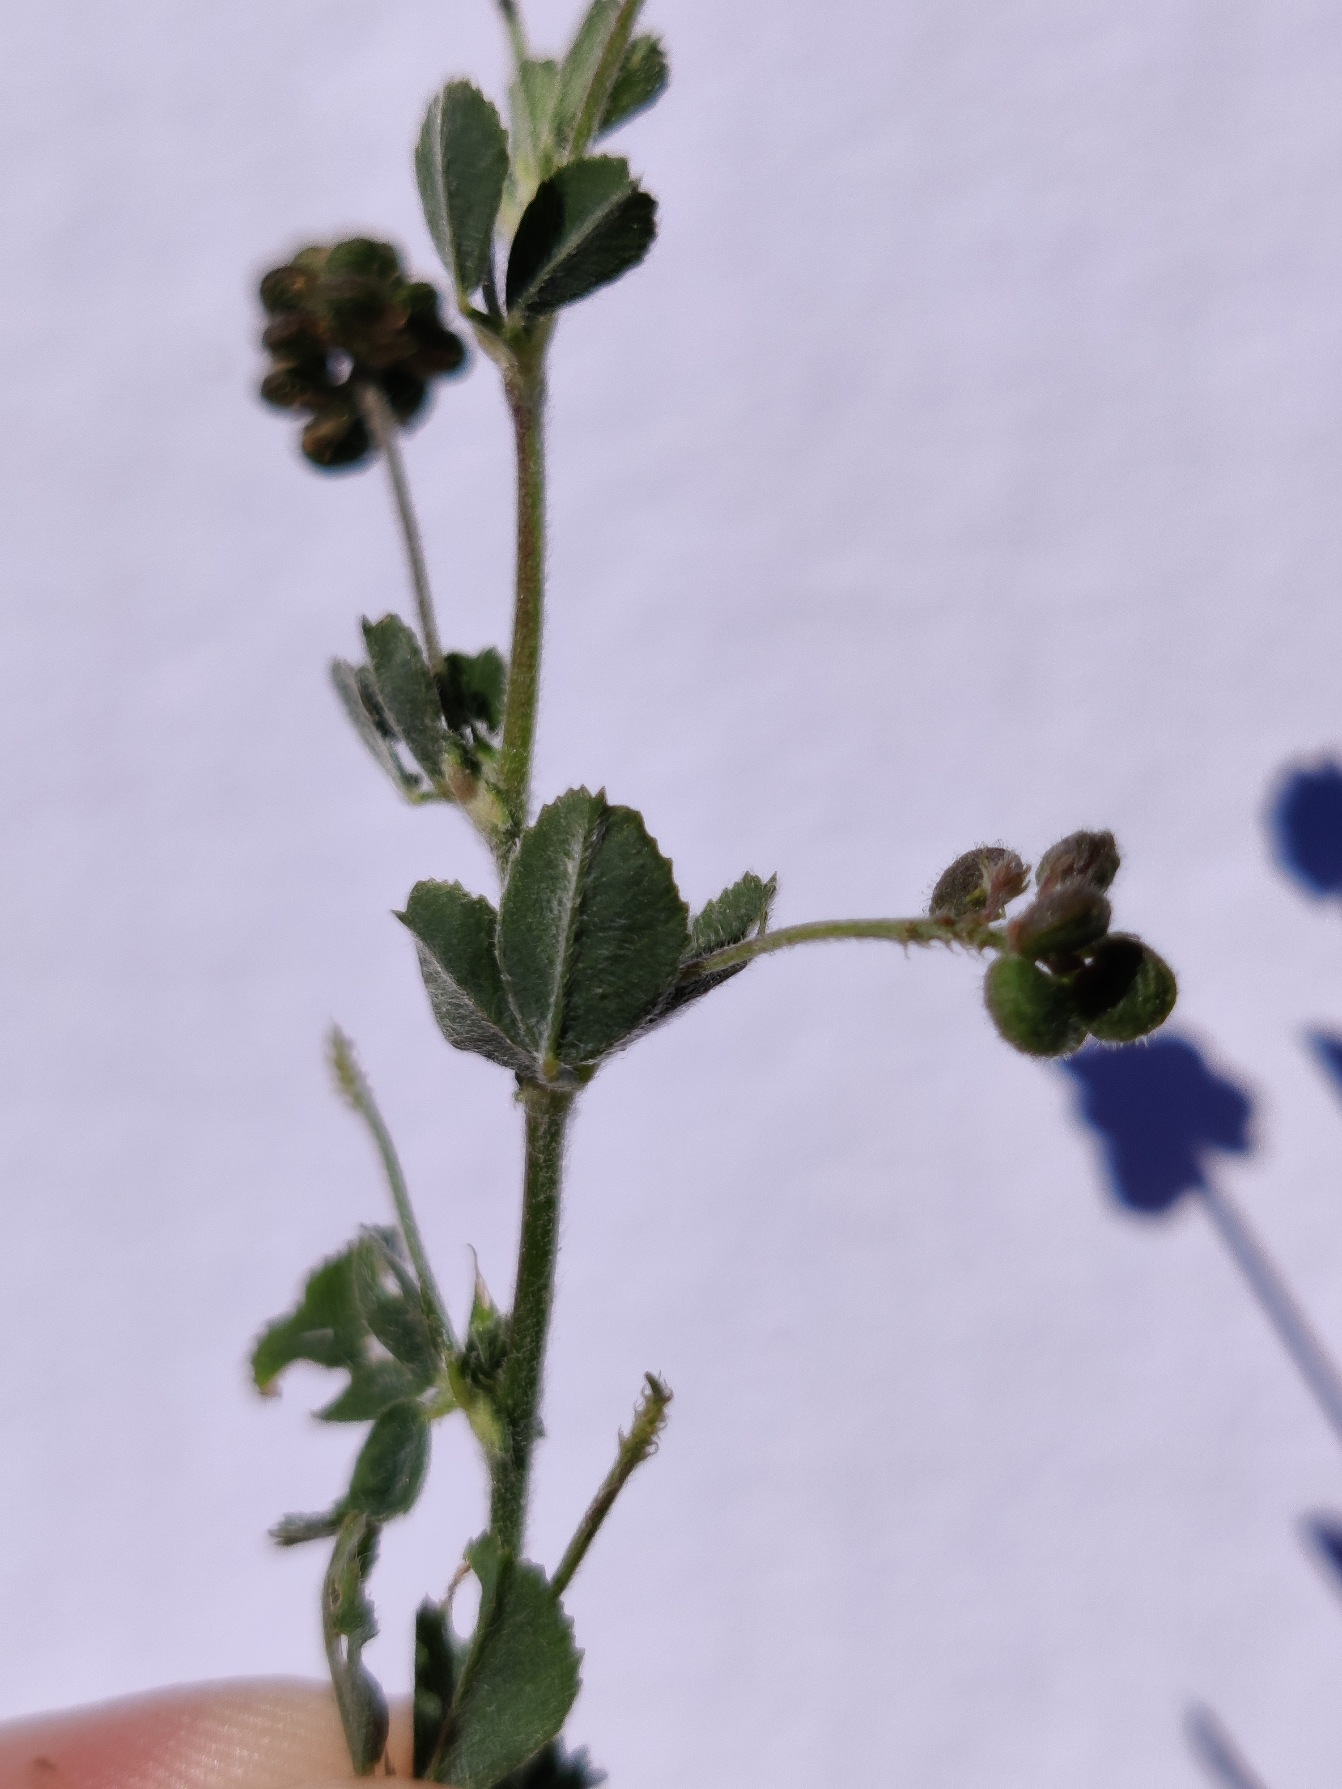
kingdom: Plantae
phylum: Tracheophyta
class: Magnoliopsida
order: Fabales
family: Fabaceae
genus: Medicago
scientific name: Medicago lupulina
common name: Humle-sneglebælg
